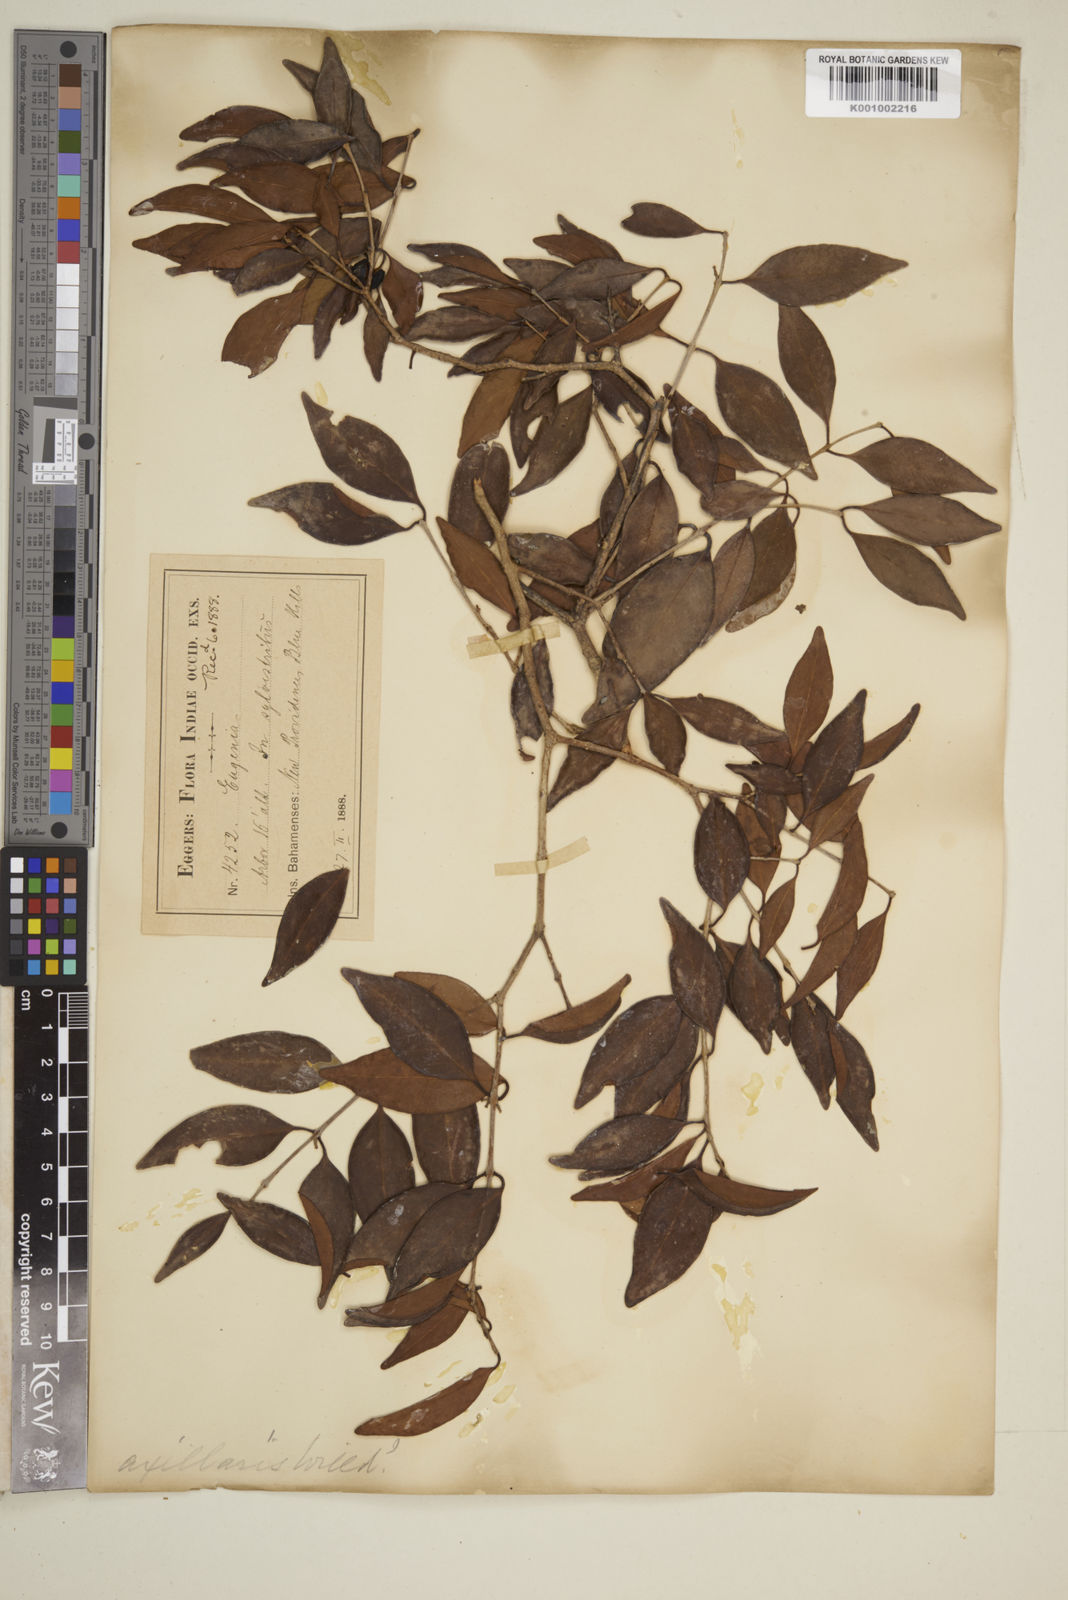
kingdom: Plantae
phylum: Tracheophyta
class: Magnoliopsida
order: Myrtales
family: Myrtaceae
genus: Eugenia
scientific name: Eugenia axillaris
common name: Choaky berry
